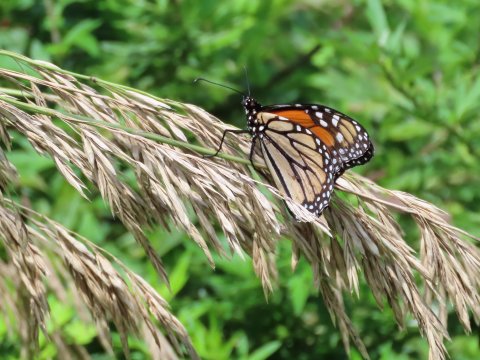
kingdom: Animalia
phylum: Arthropoda
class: Insecta
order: Lepidoptera
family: Nymphalidae
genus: Danaus
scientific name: Danaus plexippus
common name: Monarch
